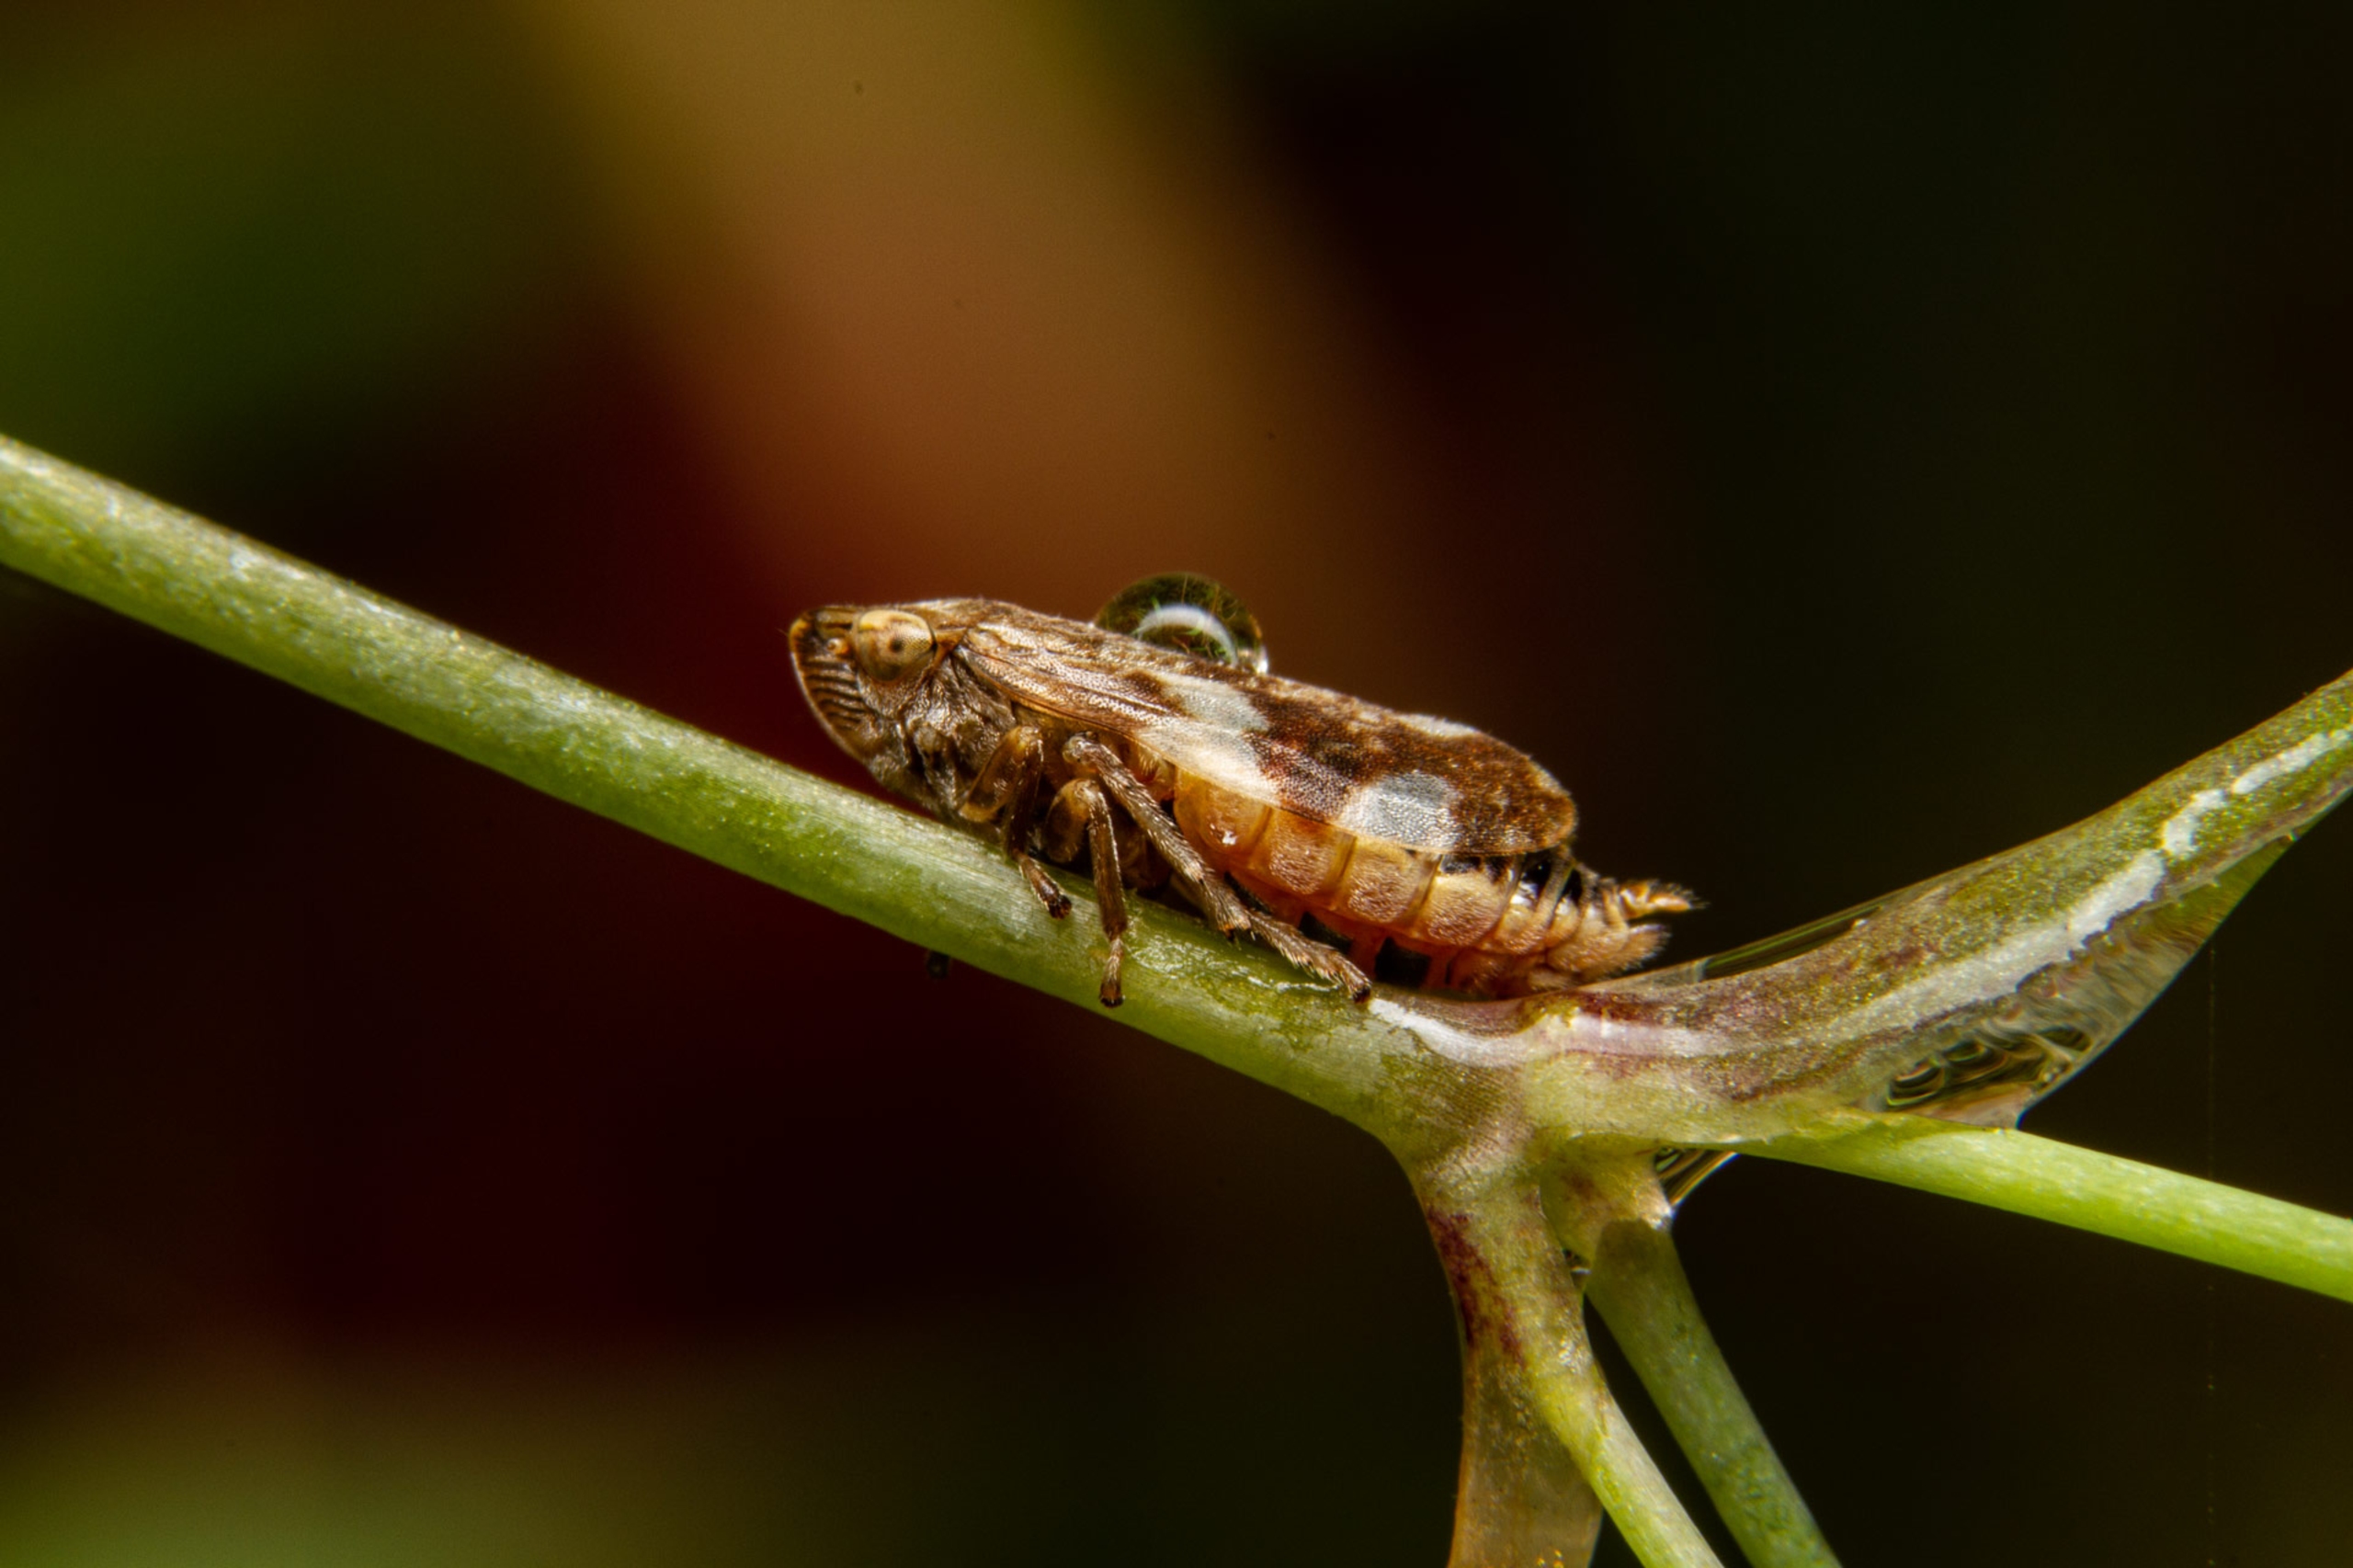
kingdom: Animalia
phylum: Arthropoda
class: Insecta
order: Hemiptera
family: Aphrophoridae
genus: Philaenus
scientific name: Philaenus spumarius
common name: Almindelig skumcikade
